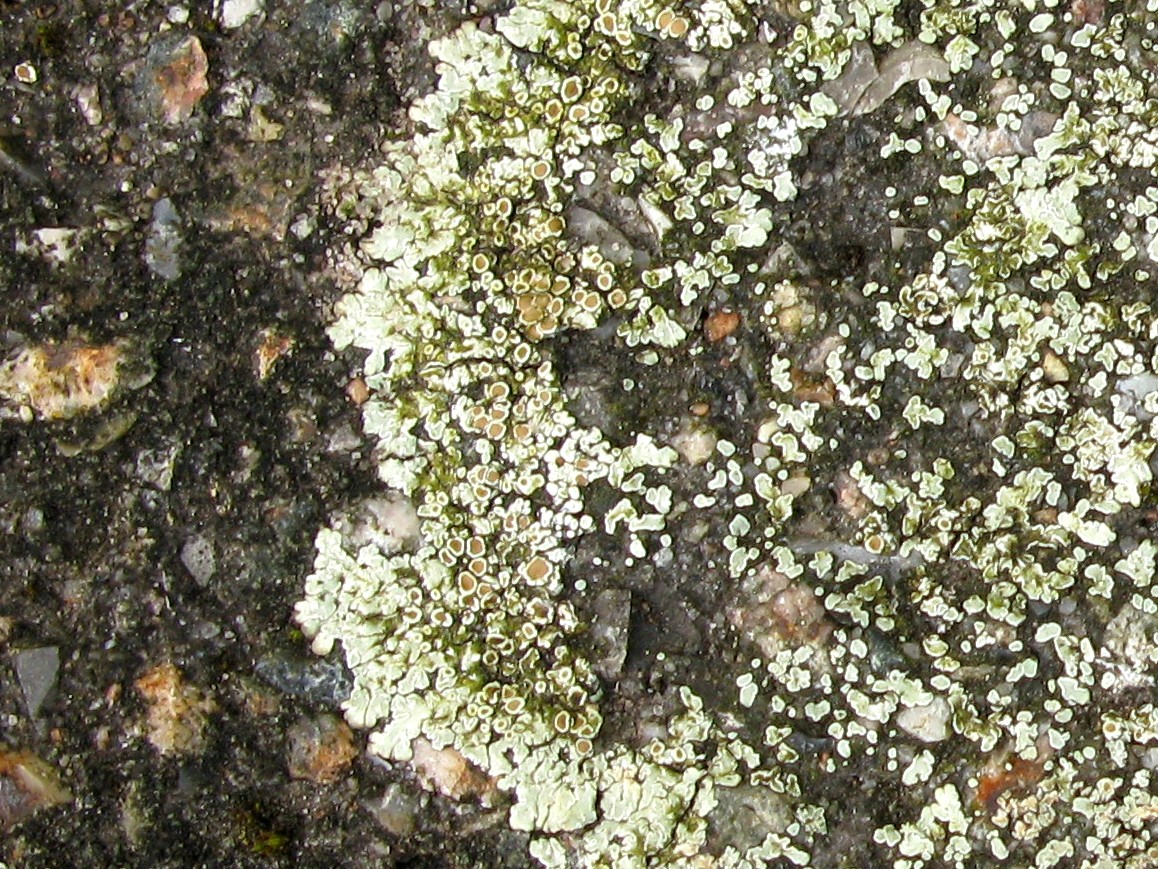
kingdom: Fungi
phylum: Ascomycota
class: Lecanoromycetes
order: Lecanorales
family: Lecanoraceae
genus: Protoparmeliopsis
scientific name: Protoparmeliopsis muralis
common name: randfliget kantskivelav
